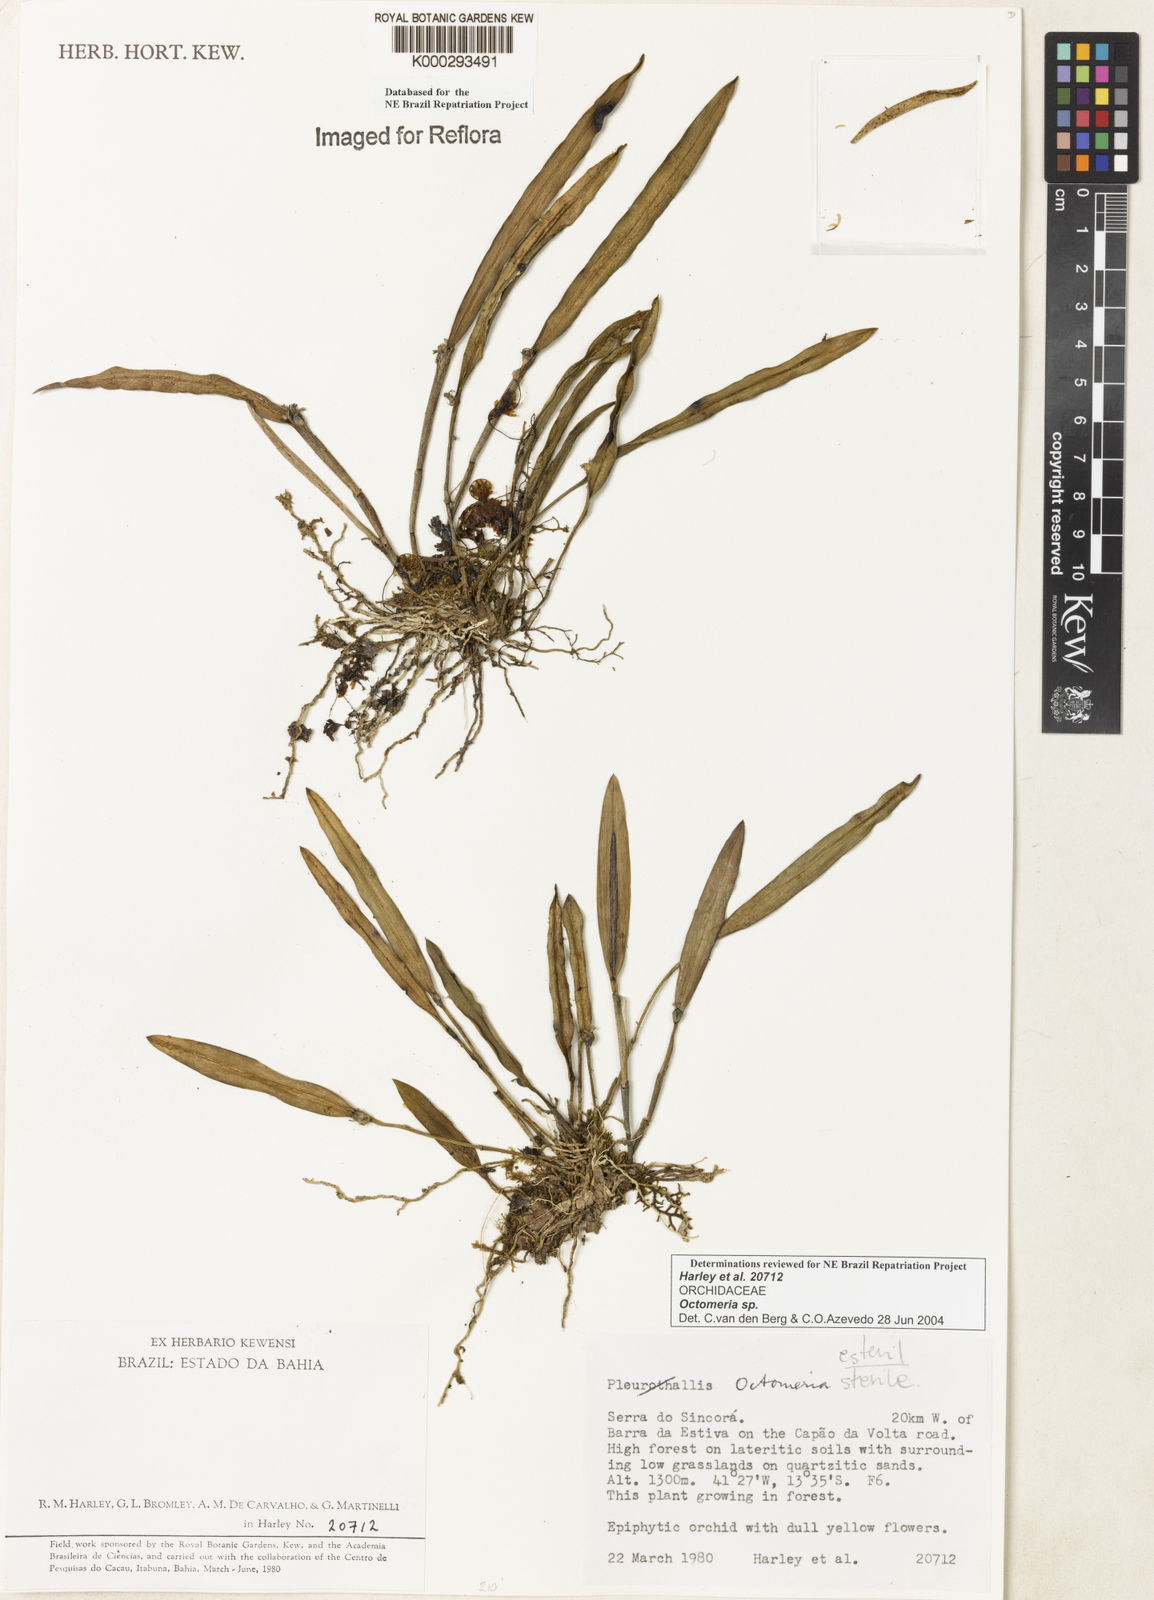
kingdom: Plantae
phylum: Tracheophyta
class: Liliopsida
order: Asparagales
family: Orchidaceae
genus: Octomeria
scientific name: Octomeria
